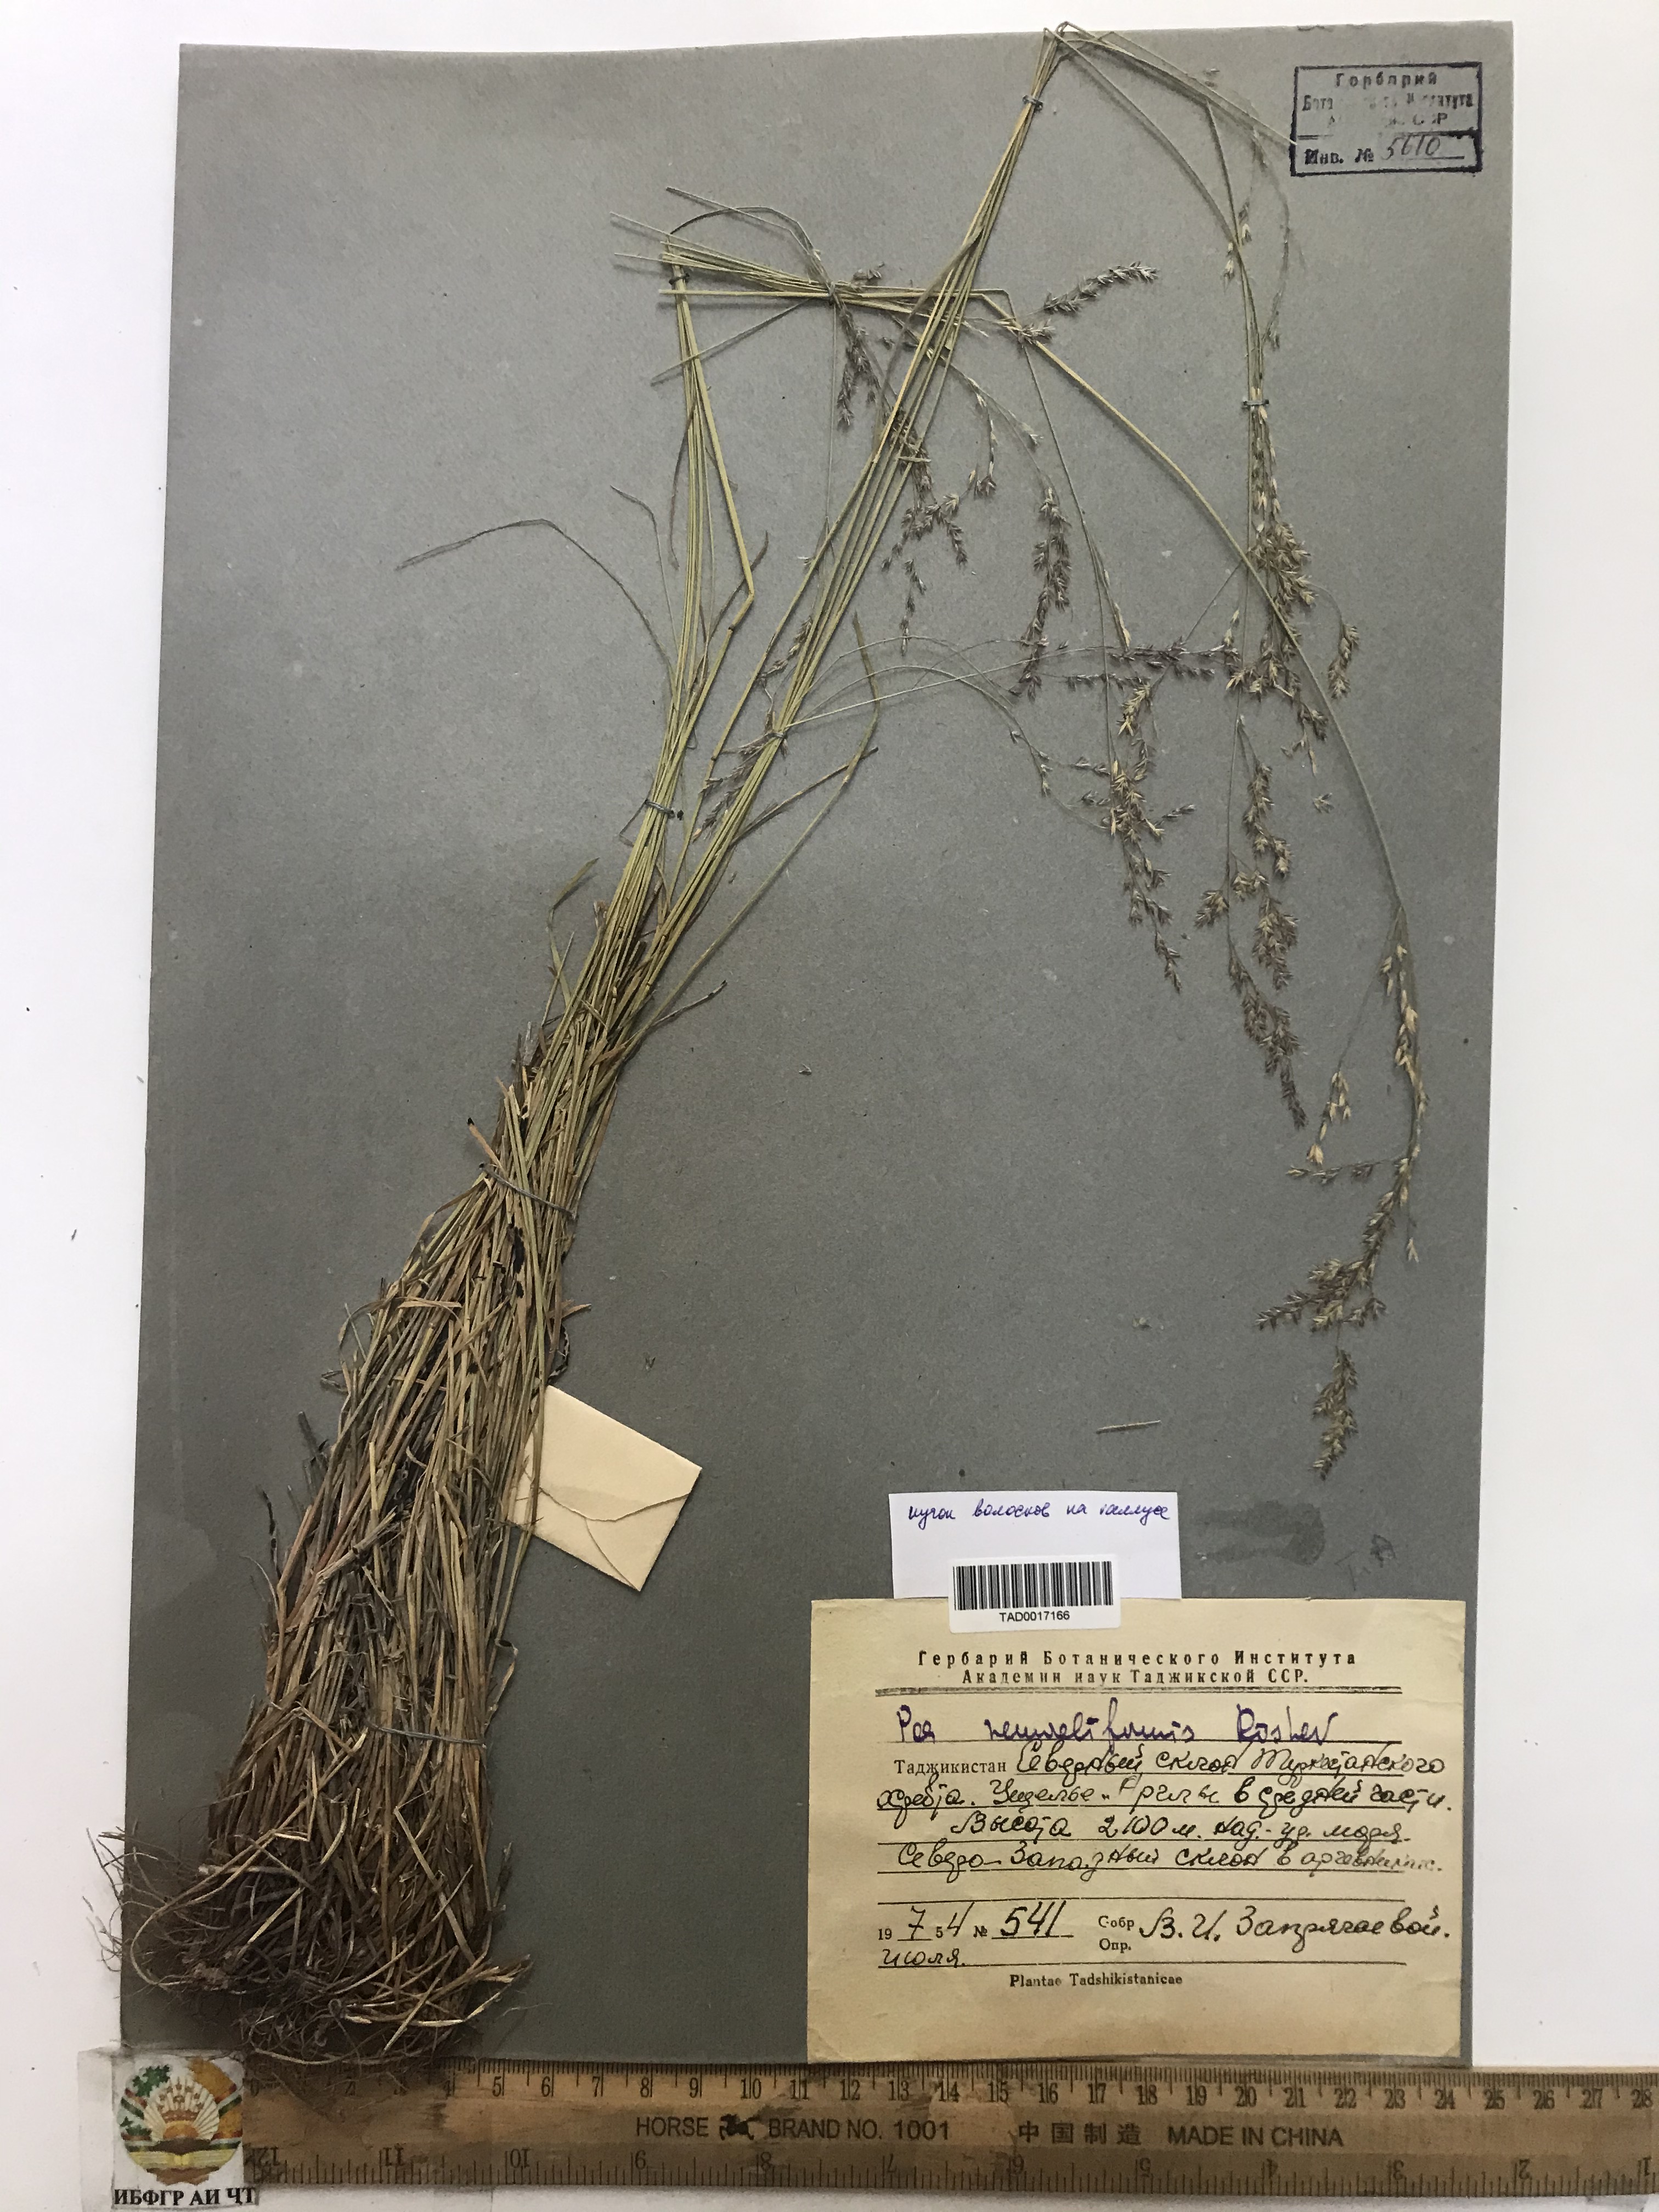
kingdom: Plantae
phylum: Tracheophyta
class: Liliopsida
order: Poales
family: Poaceae
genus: Poa
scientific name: Poa urssulensis
